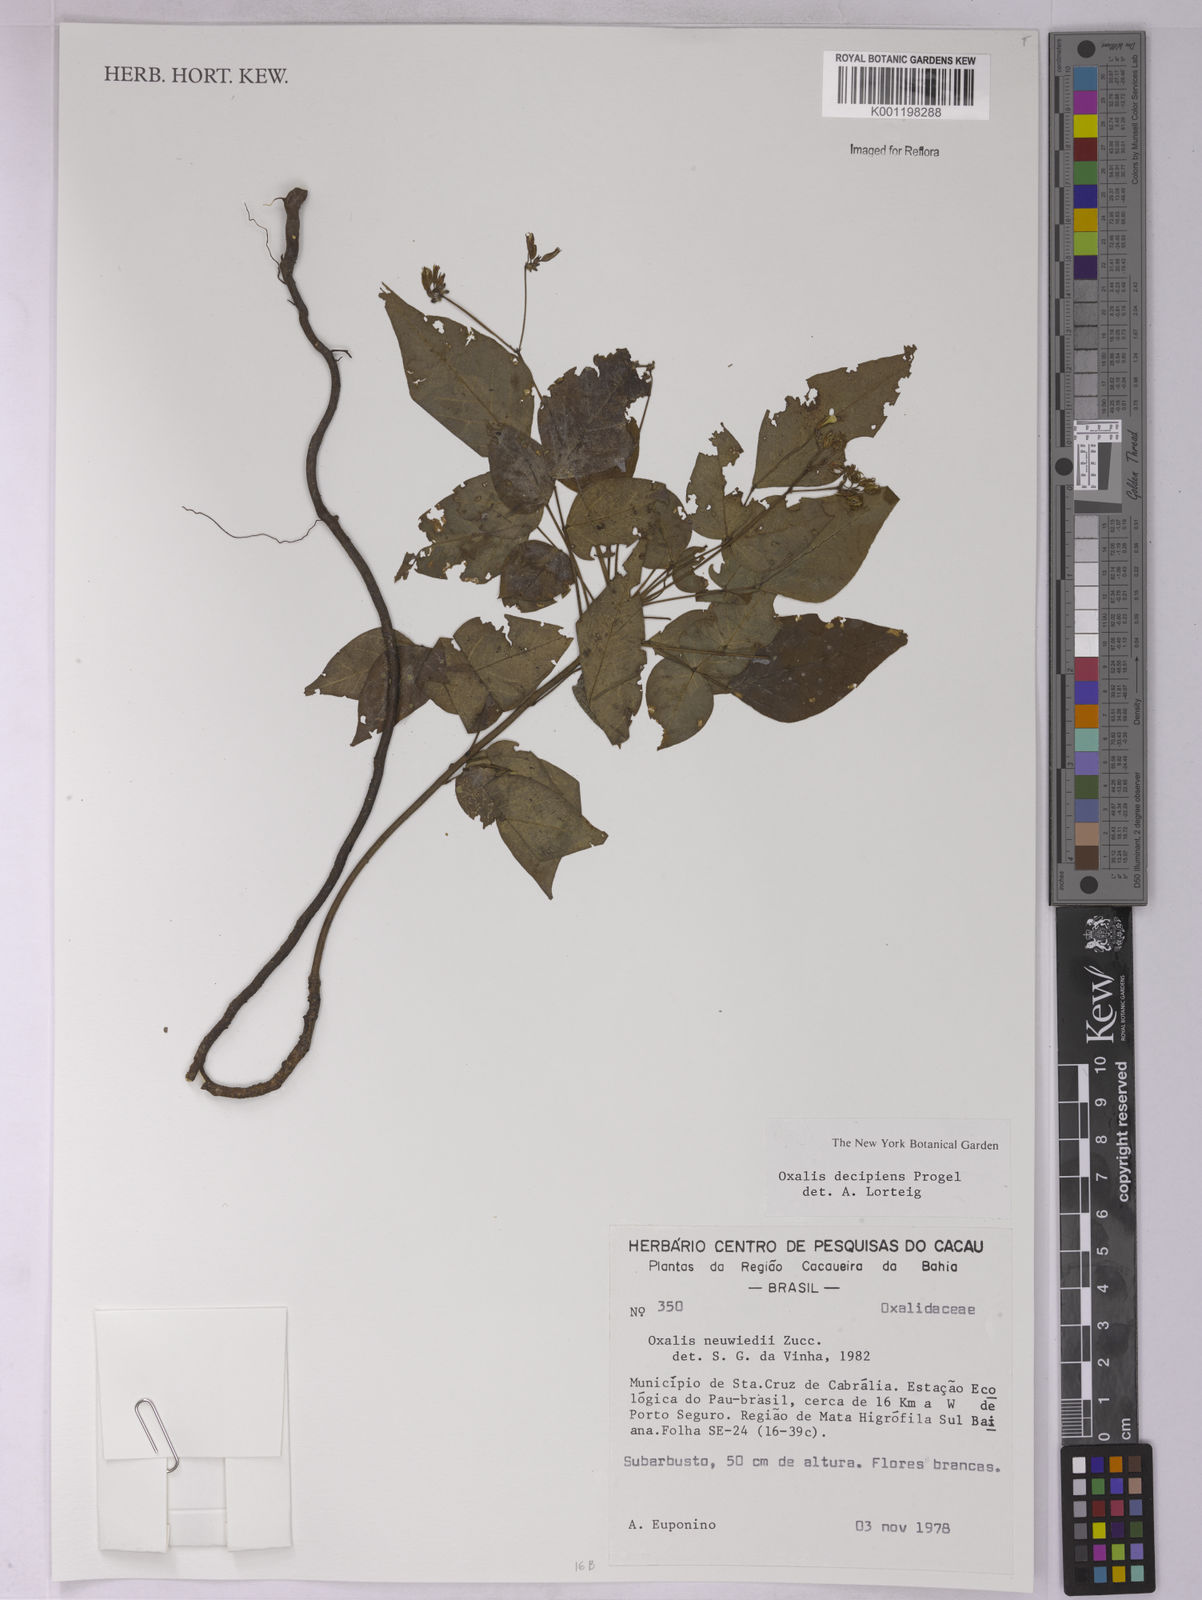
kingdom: Plantae
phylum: Tracheophyta
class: Magnoliopsida
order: Oxalidales
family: Oxalidaceae
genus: Oxalis
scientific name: Oxalis polymorpha
